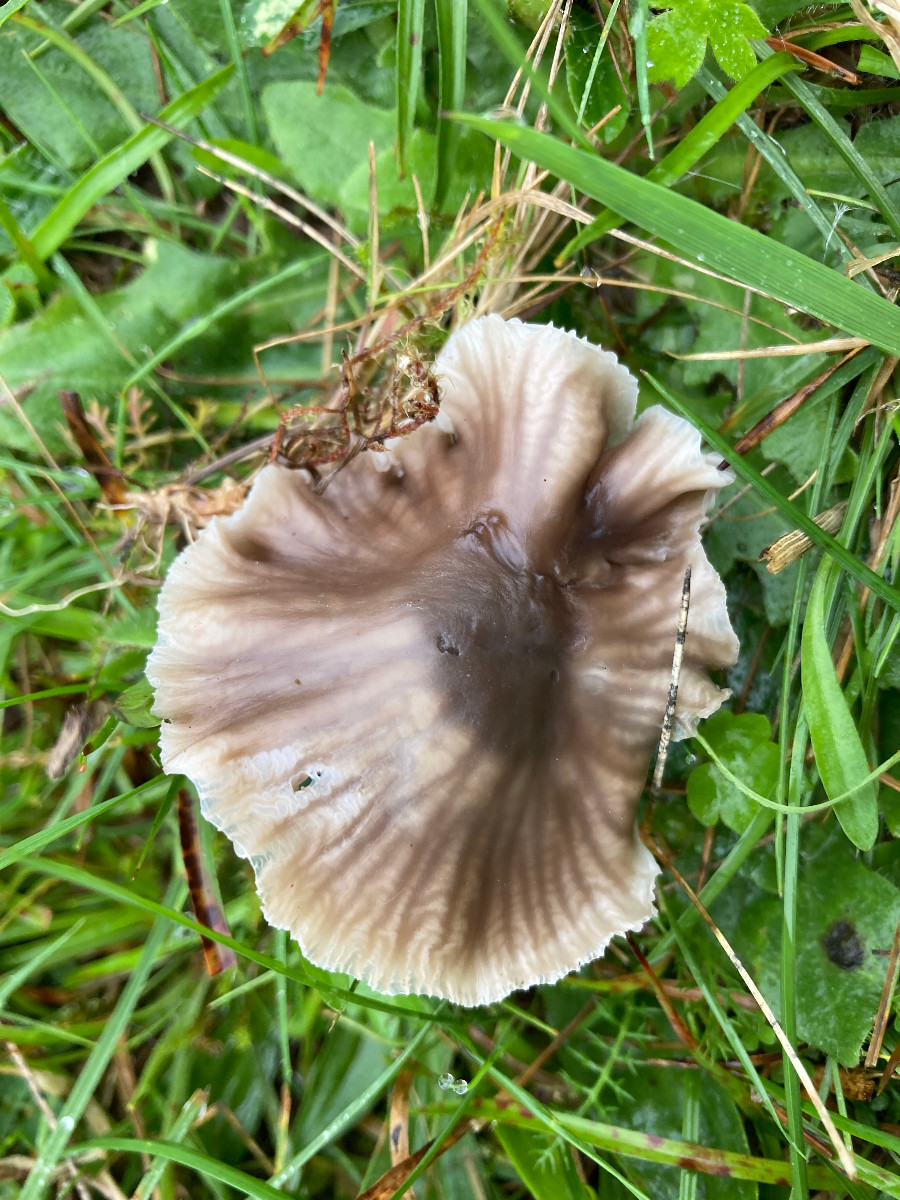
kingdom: Fungi
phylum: Basidiomycota
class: Agaricomycetes
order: Agaricales
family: Hygrophoraceae
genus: Cuphophyllus
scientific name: Cuphophyllus flavipes
